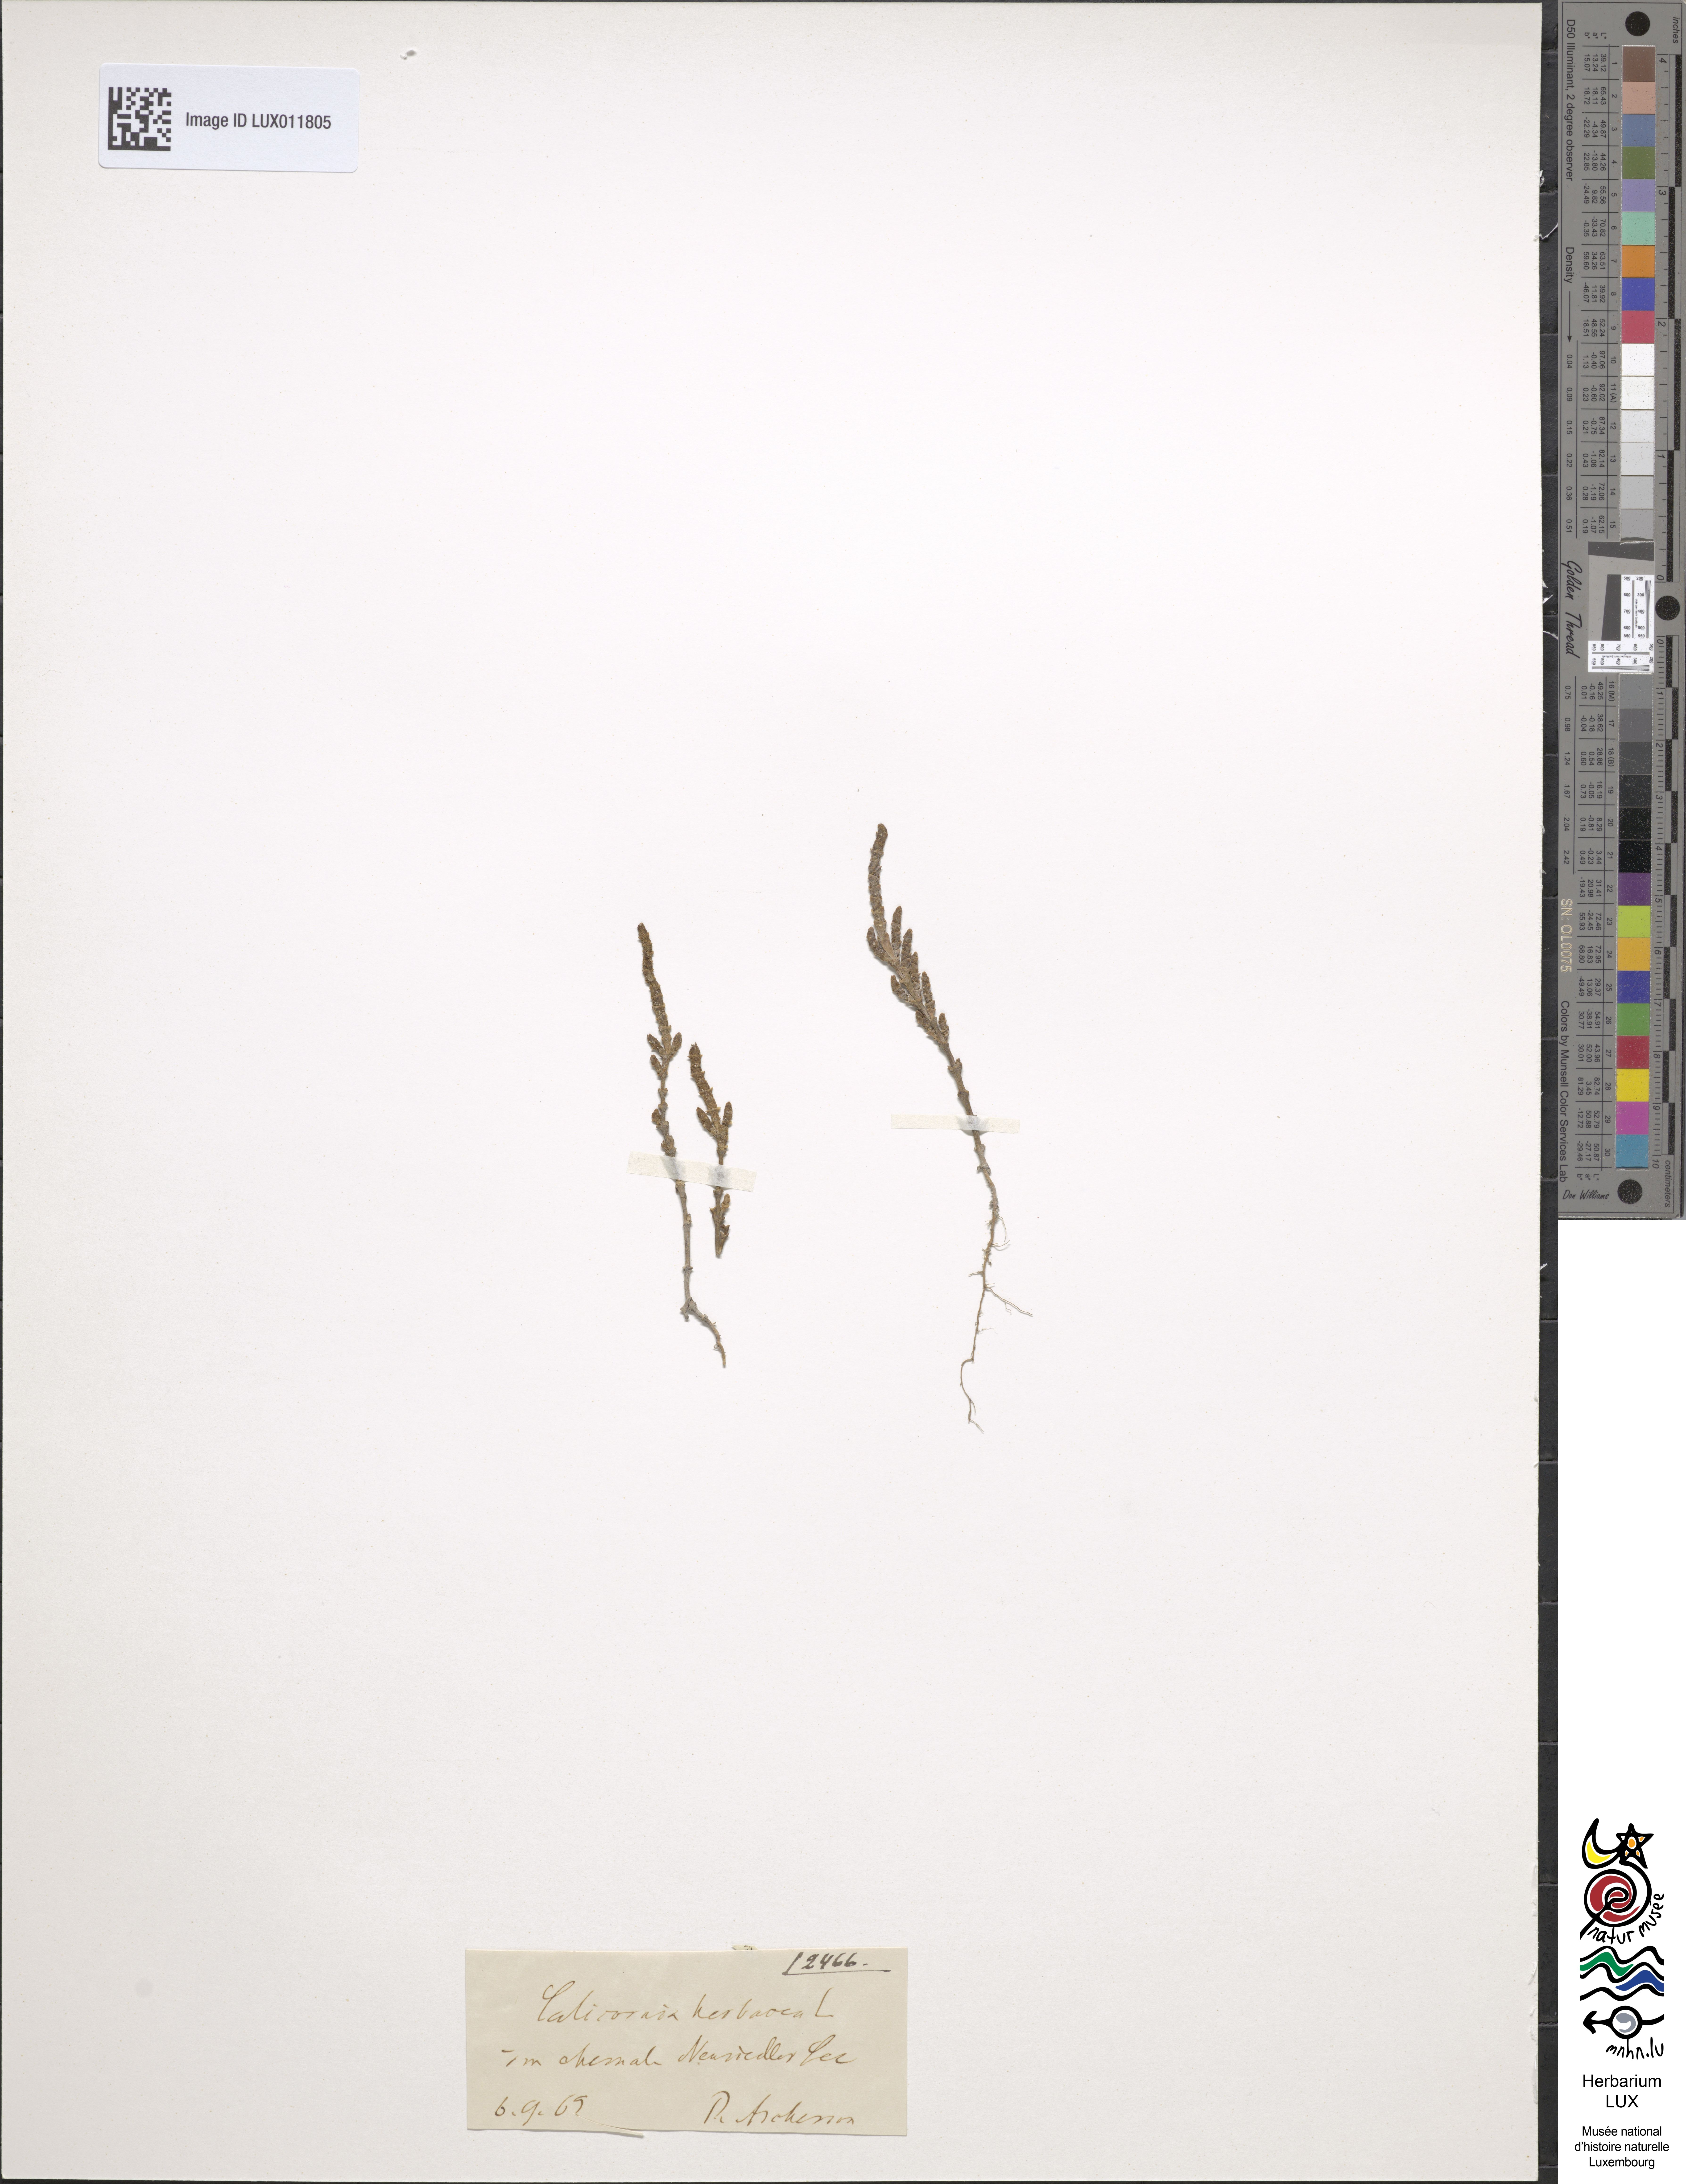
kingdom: Plantae
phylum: Tracheophyta
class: Magnoliopsida
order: Caryophyllales
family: Amaranthaceae
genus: Salicornia
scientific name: Salicornia europaea
